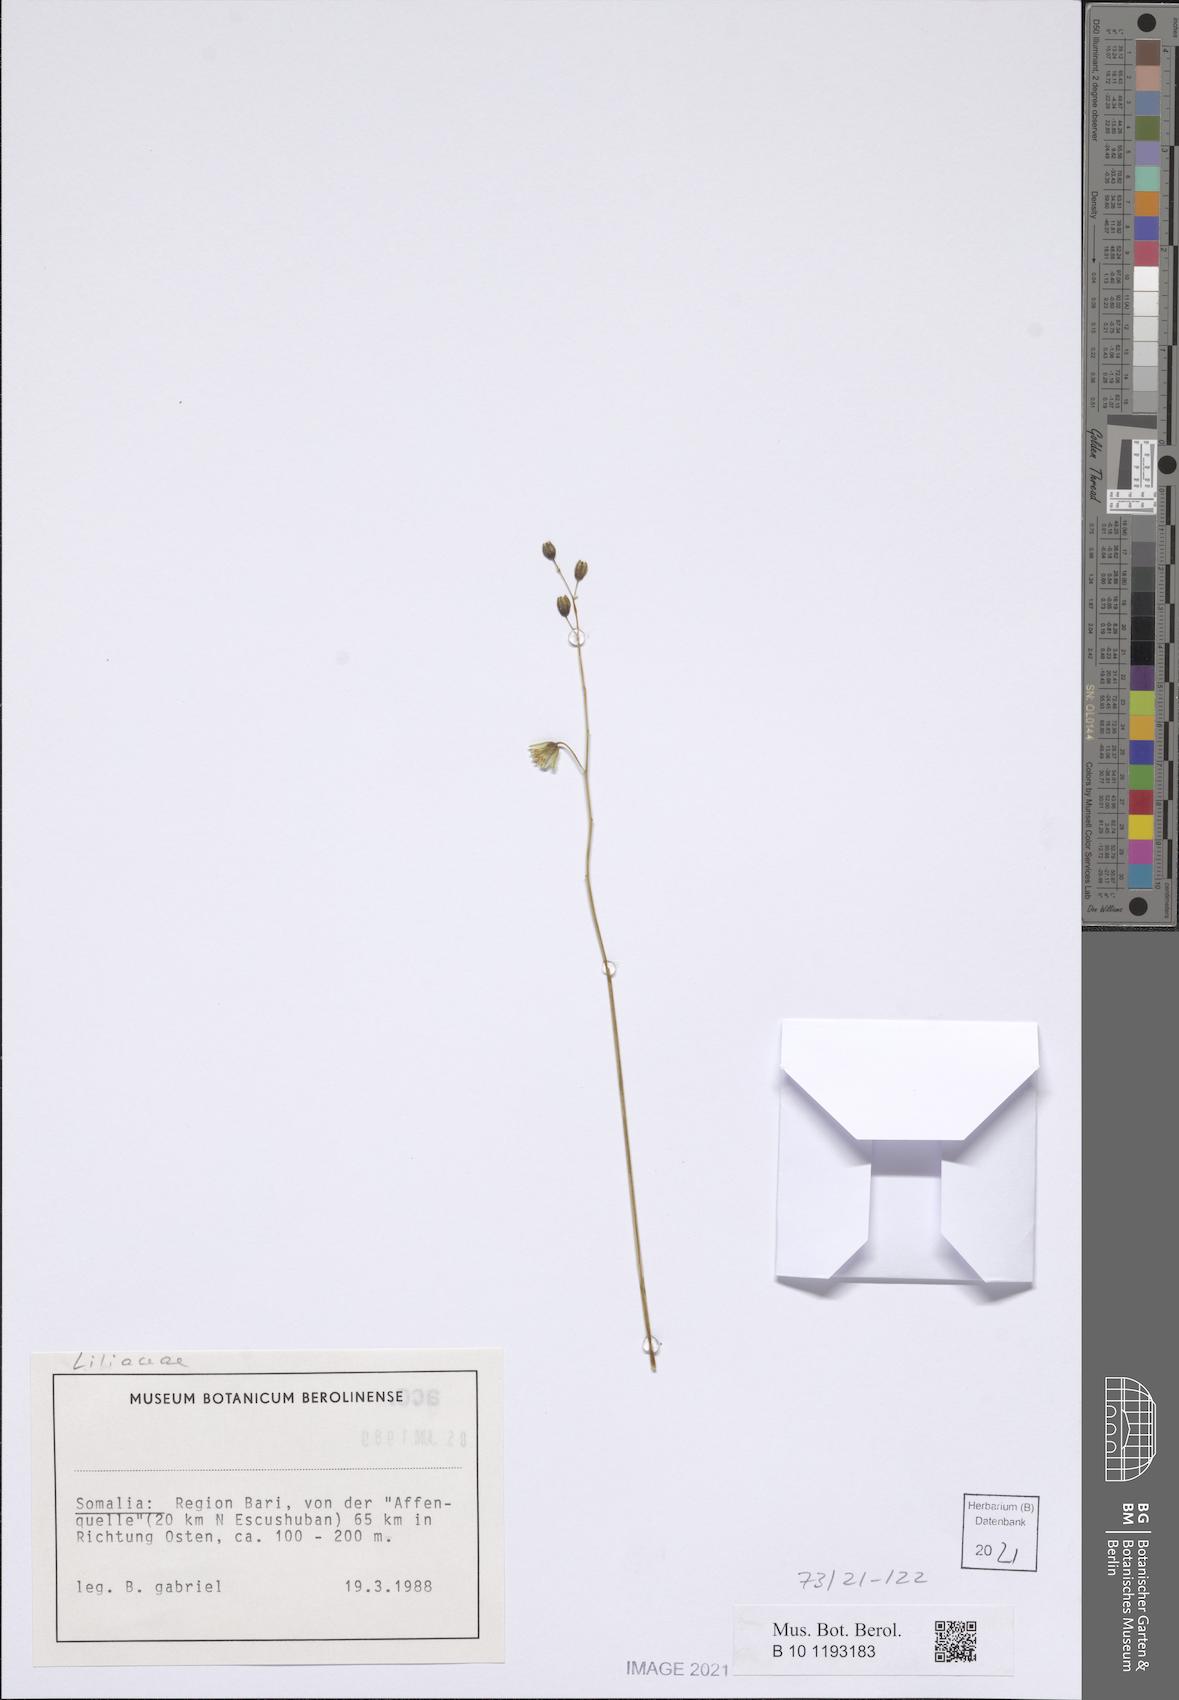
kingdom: Plantae
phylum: Tracheophyta
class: Liliopsida
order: Asparagales
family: Asparagaceae
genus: Albuca
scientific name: Albuca abyssinica
